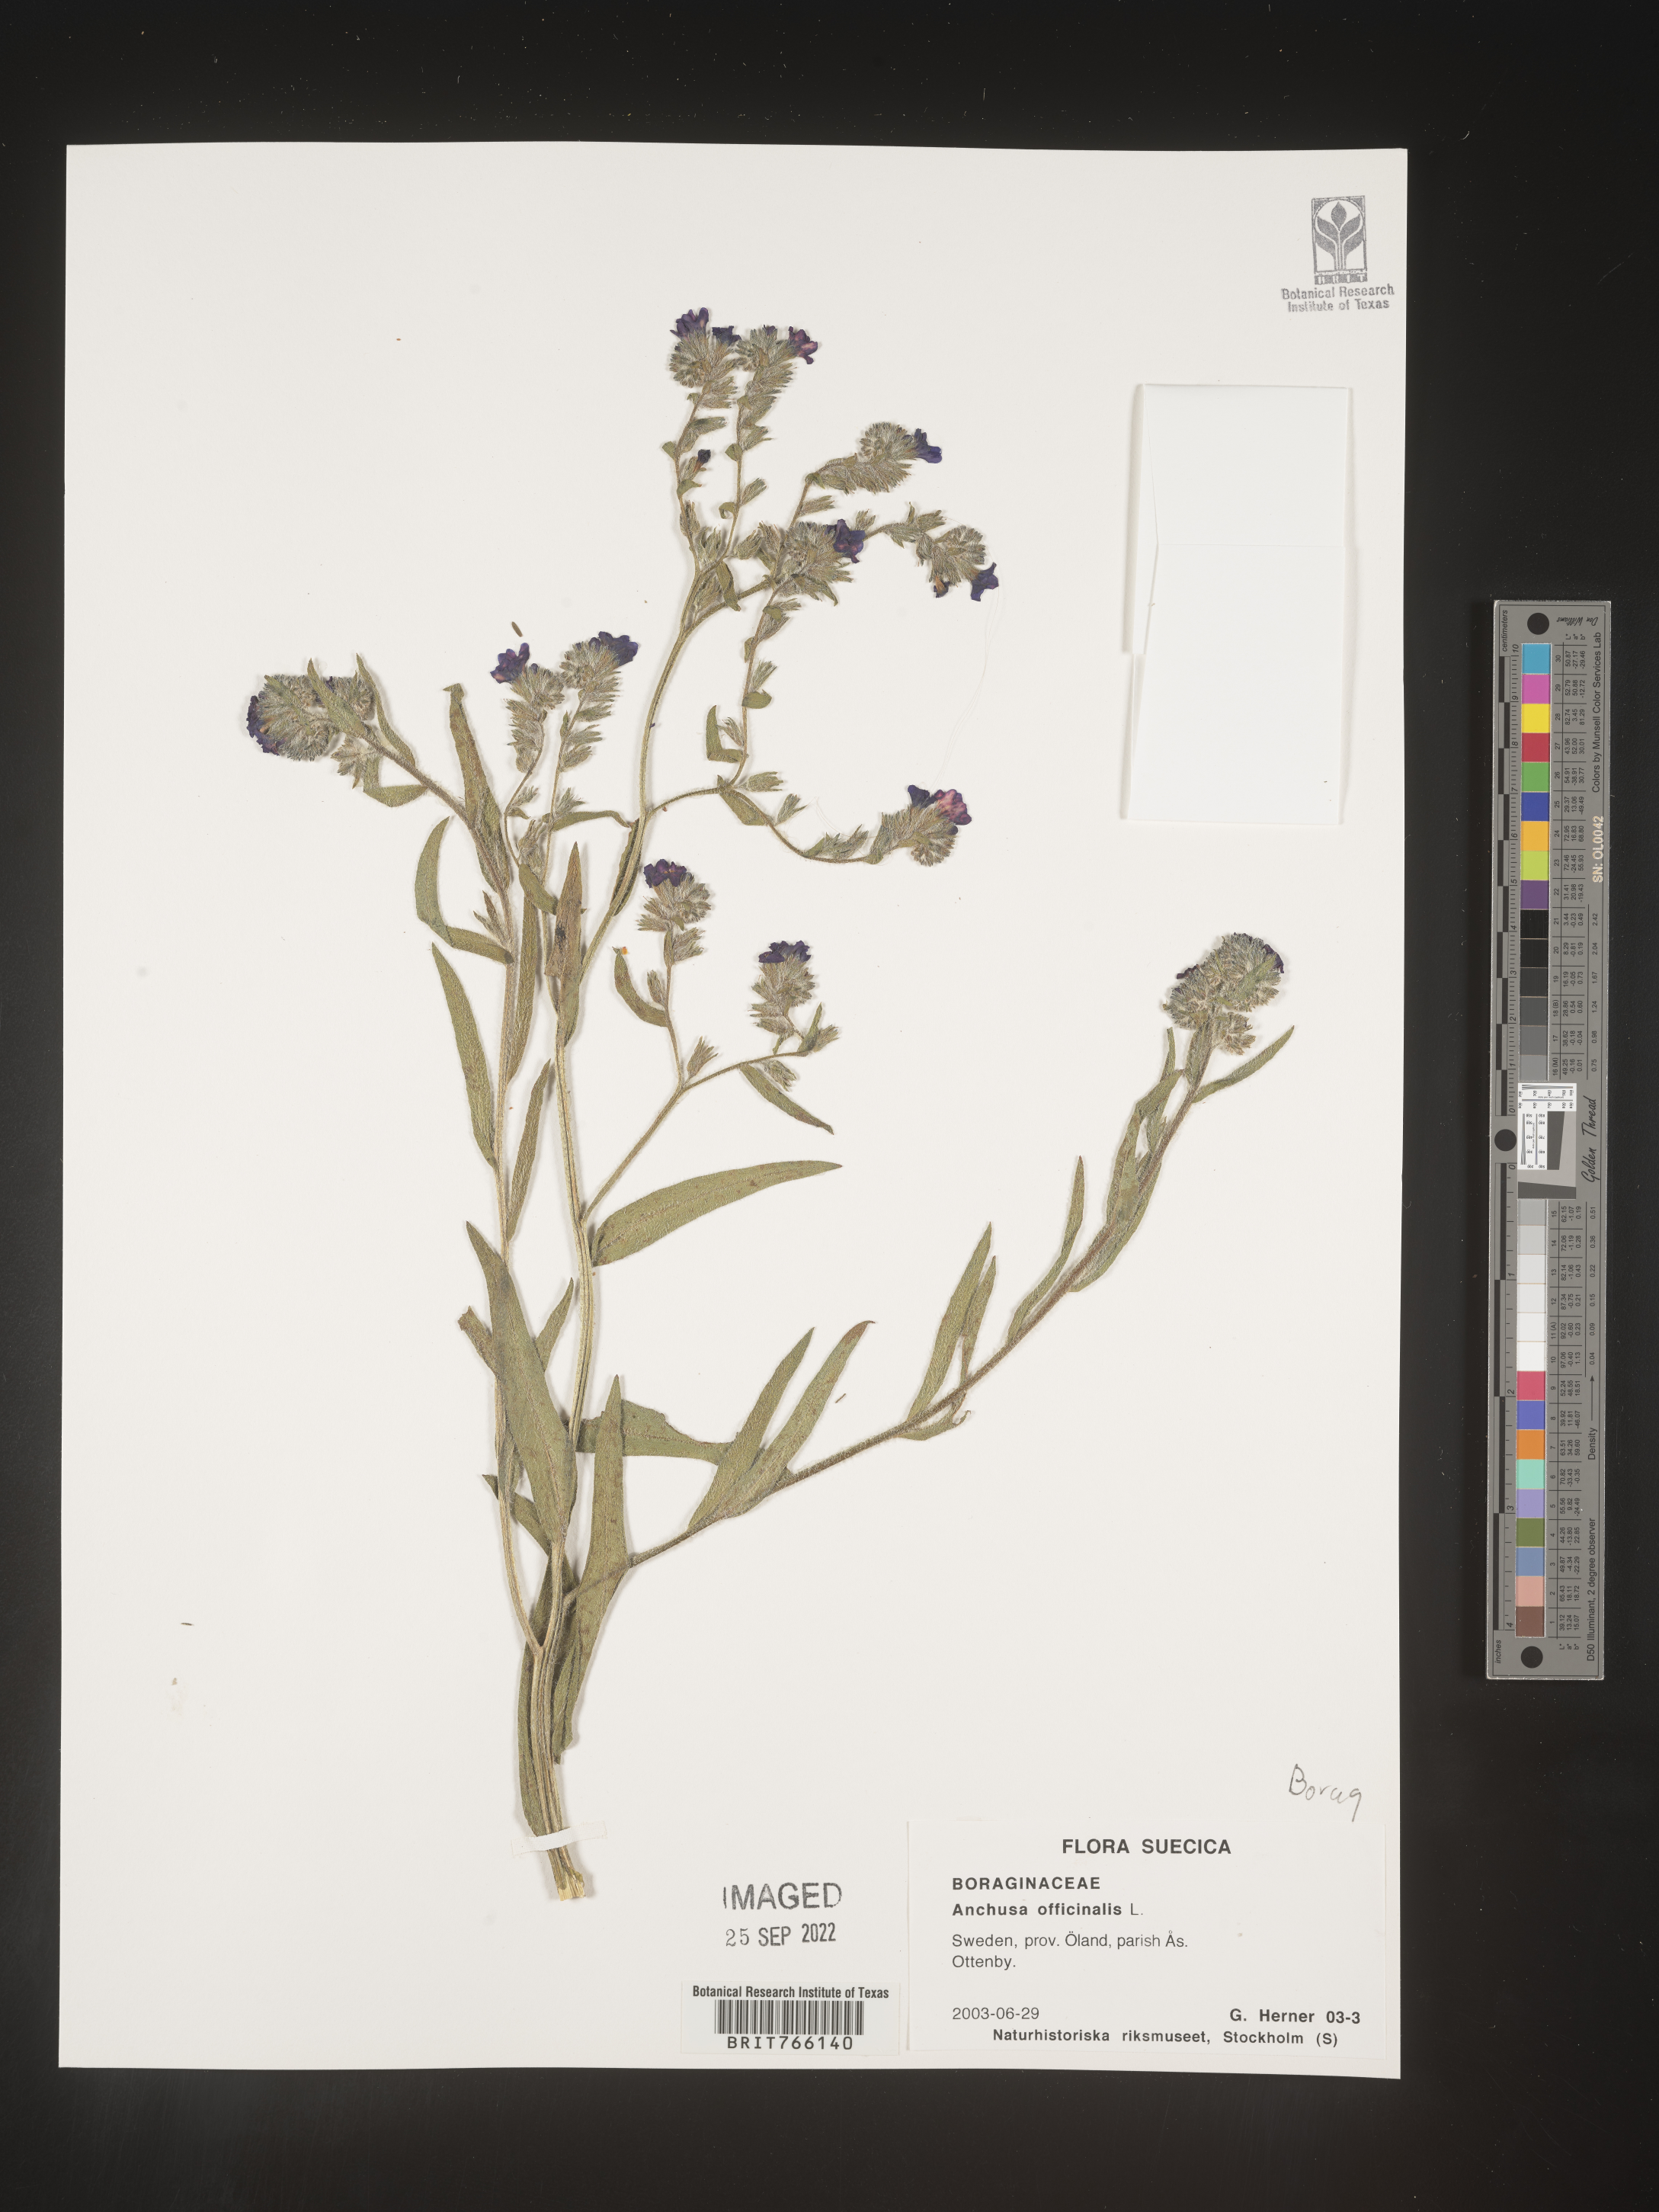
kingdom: Plantae
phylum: Tracheophyta
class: Magnoliopsida
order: Boraginales
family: Boraginaceae
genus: Anchusa
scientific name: Anchusa
